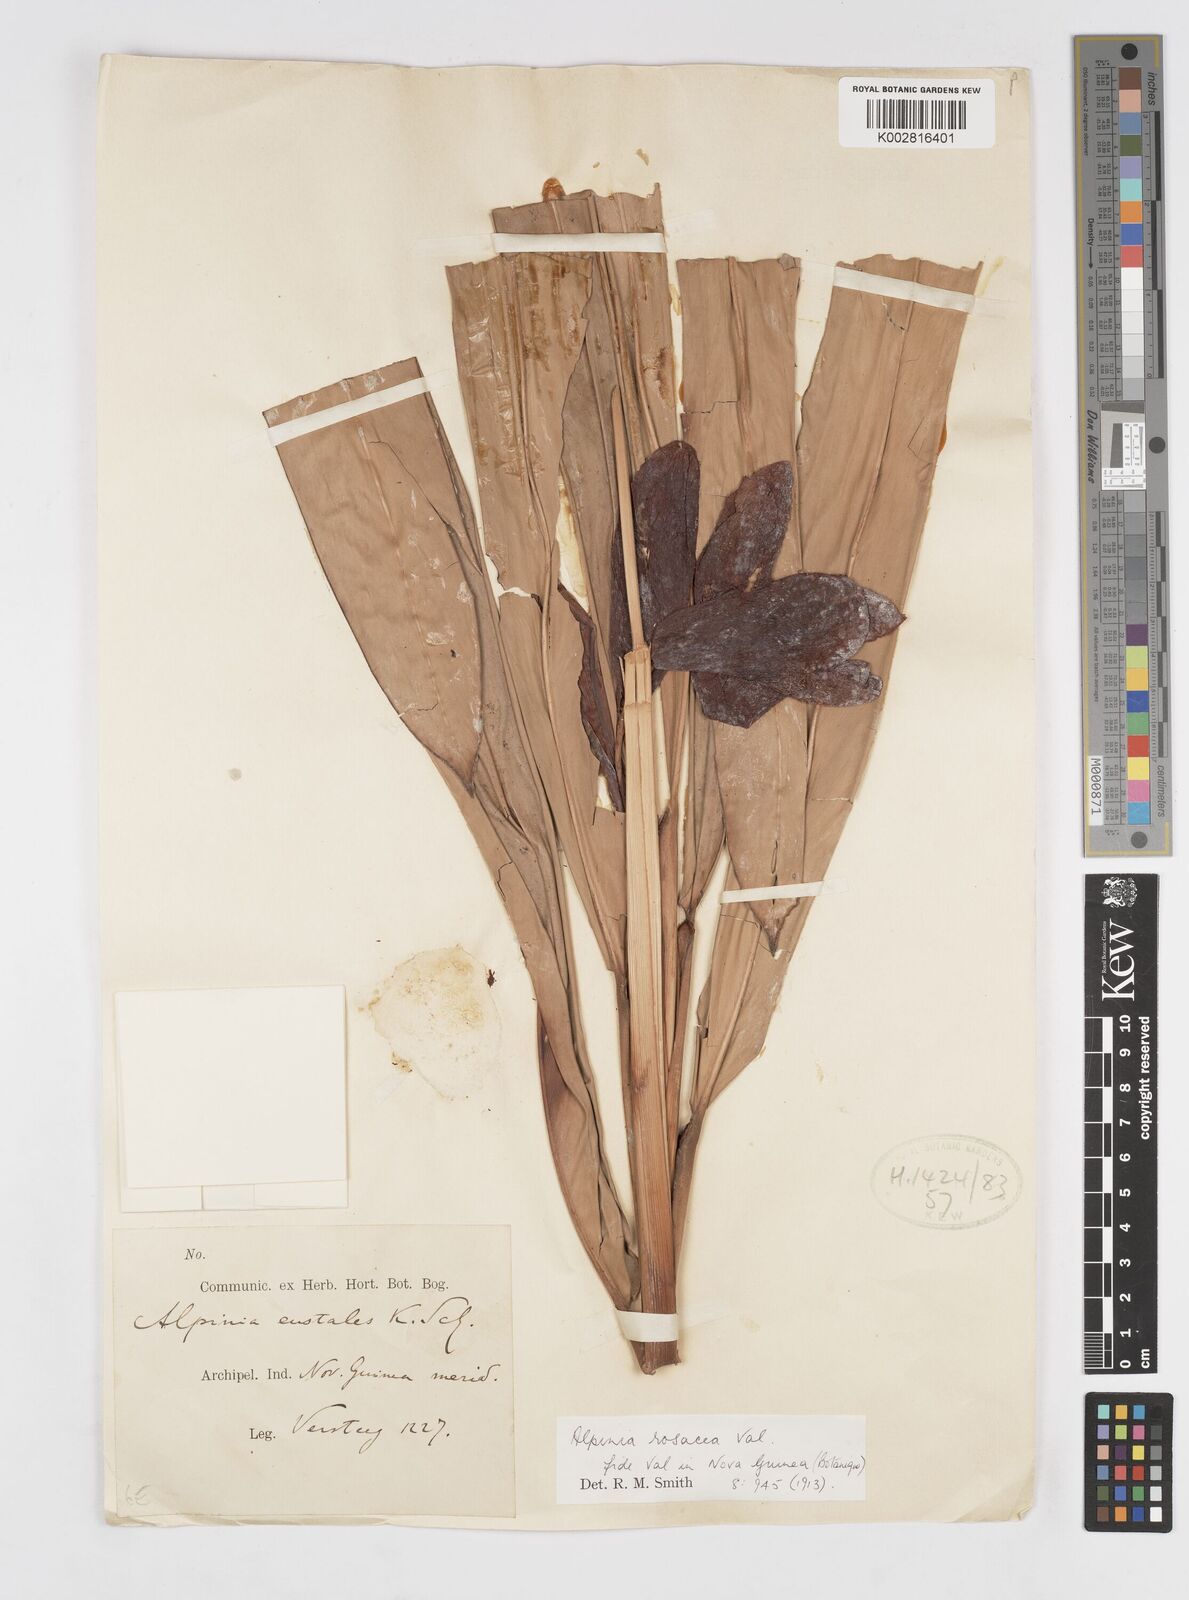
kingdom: Plantae
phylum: Tracheophyta
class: Liliopsida
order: Zingiberales
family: Zingiberaceae
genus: Alpinia
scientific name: Alpinia rosacea
